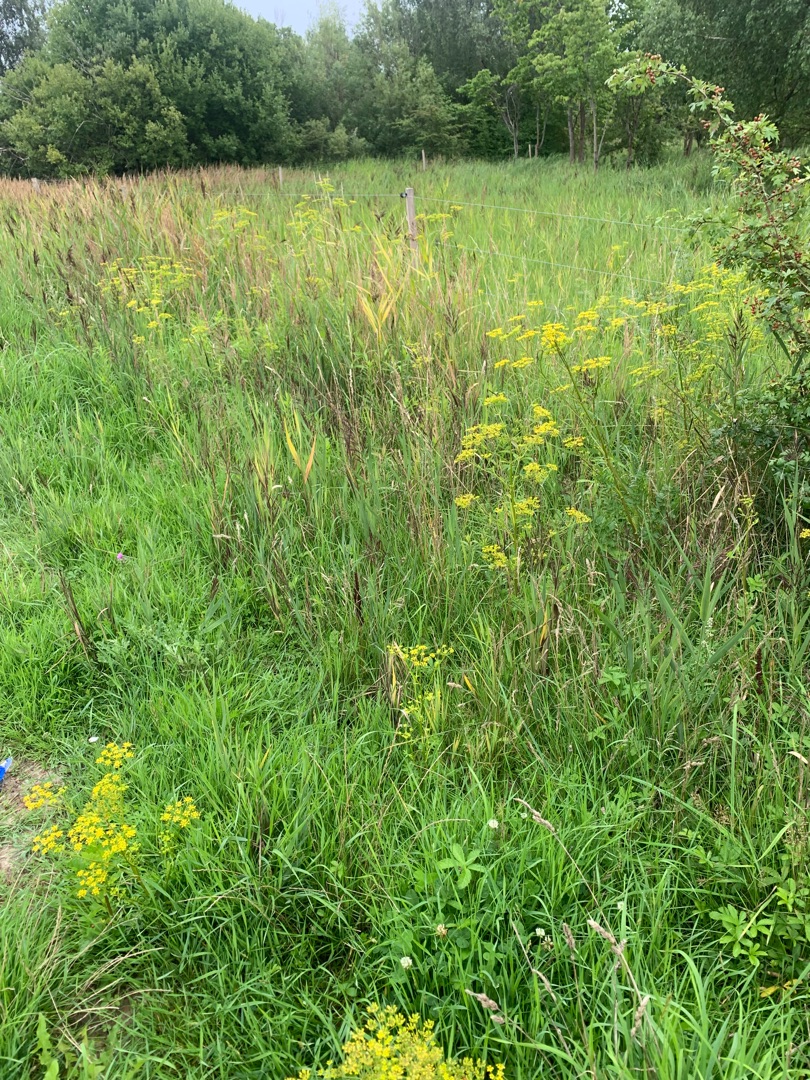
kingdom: Plantae
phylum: Tracheophyta
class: Magnoliopsida
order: Apiales
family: Apiaceae
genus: Pastinaca
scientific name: Pastinaca sativa
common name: Pastinak
